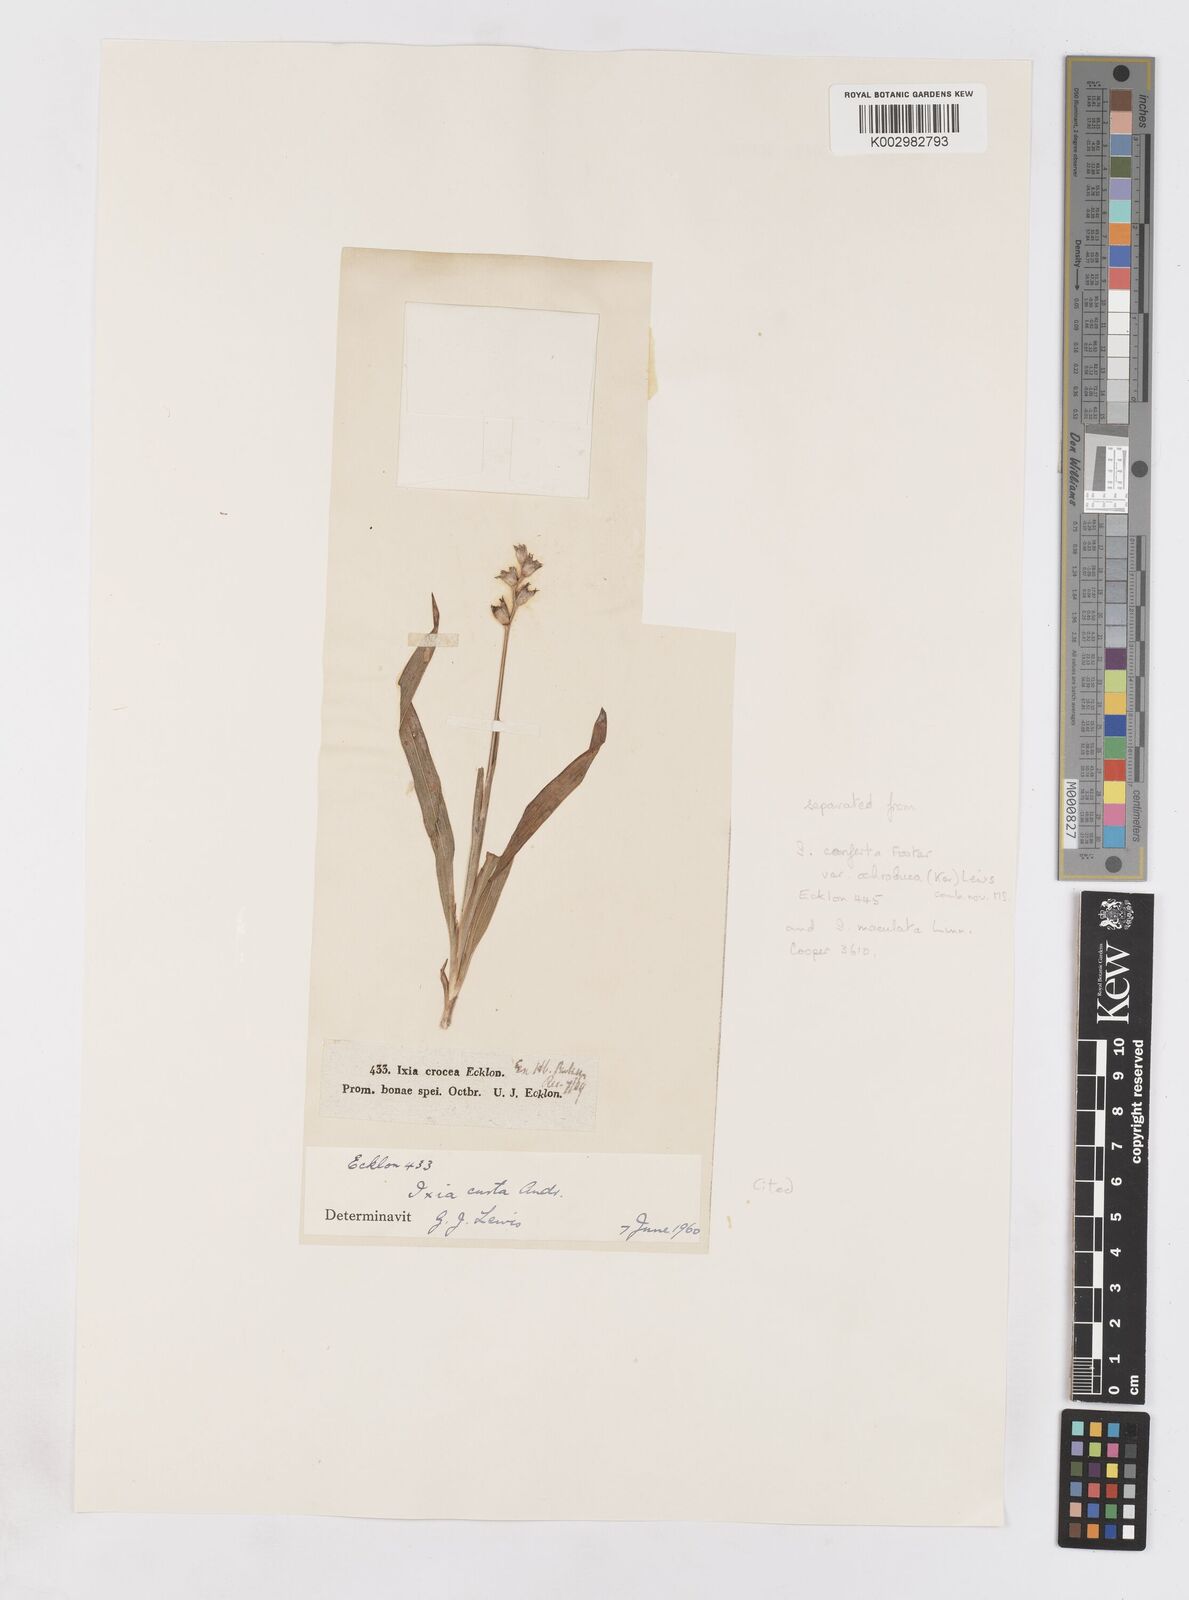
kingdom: Plantae
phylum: Tracheophyta
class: Liliopsida
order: Asparagales
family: Iridaceae
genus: Ixia
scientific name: Ixia curta
